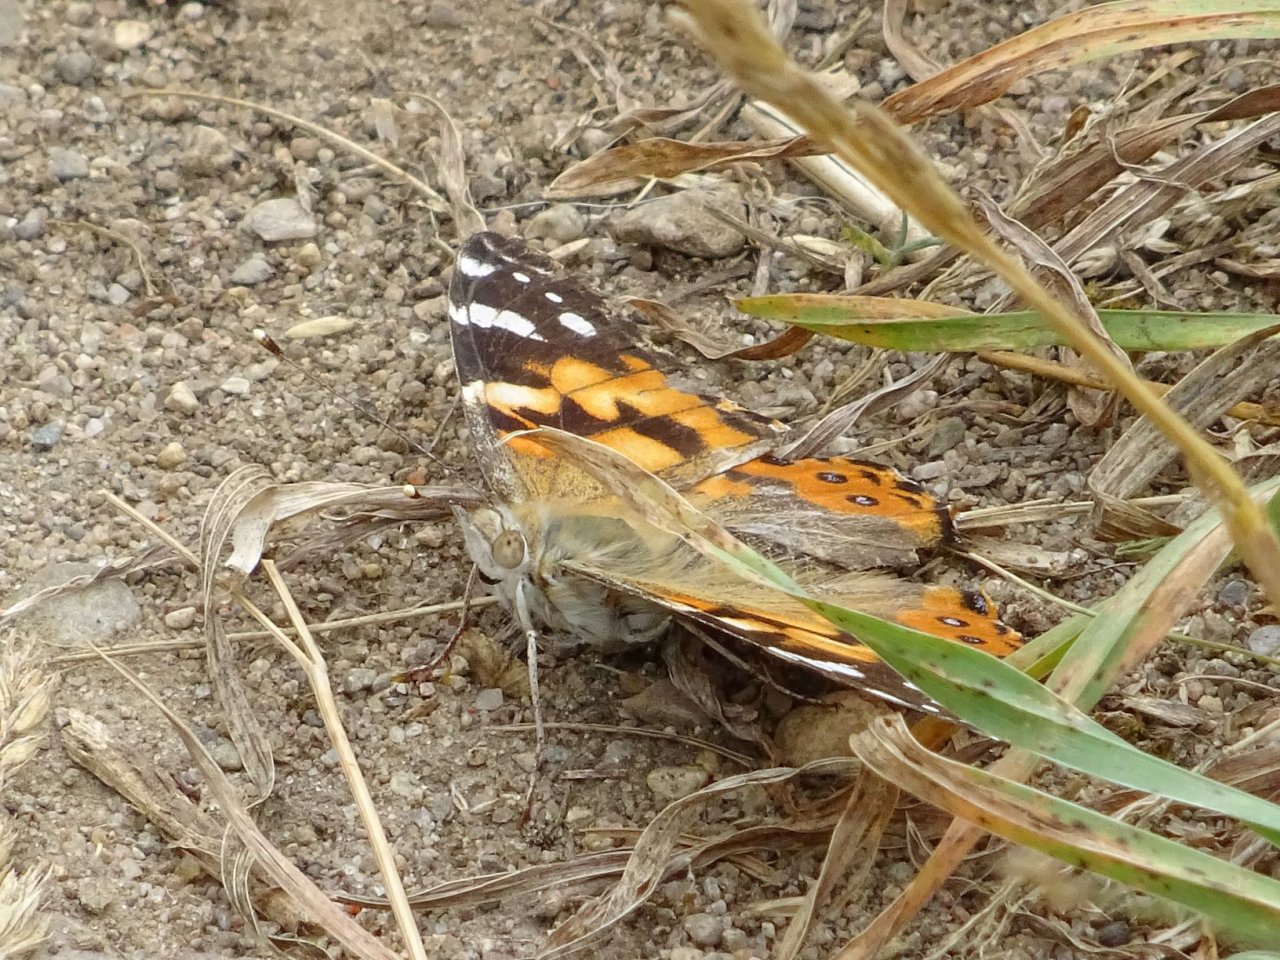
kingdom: Animalia
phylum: Arthropoda
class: Insecta
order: Lepidoptera
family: Nymphalidae
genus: Vanessa
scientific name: Vanessa cardui
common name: Painted Lady
